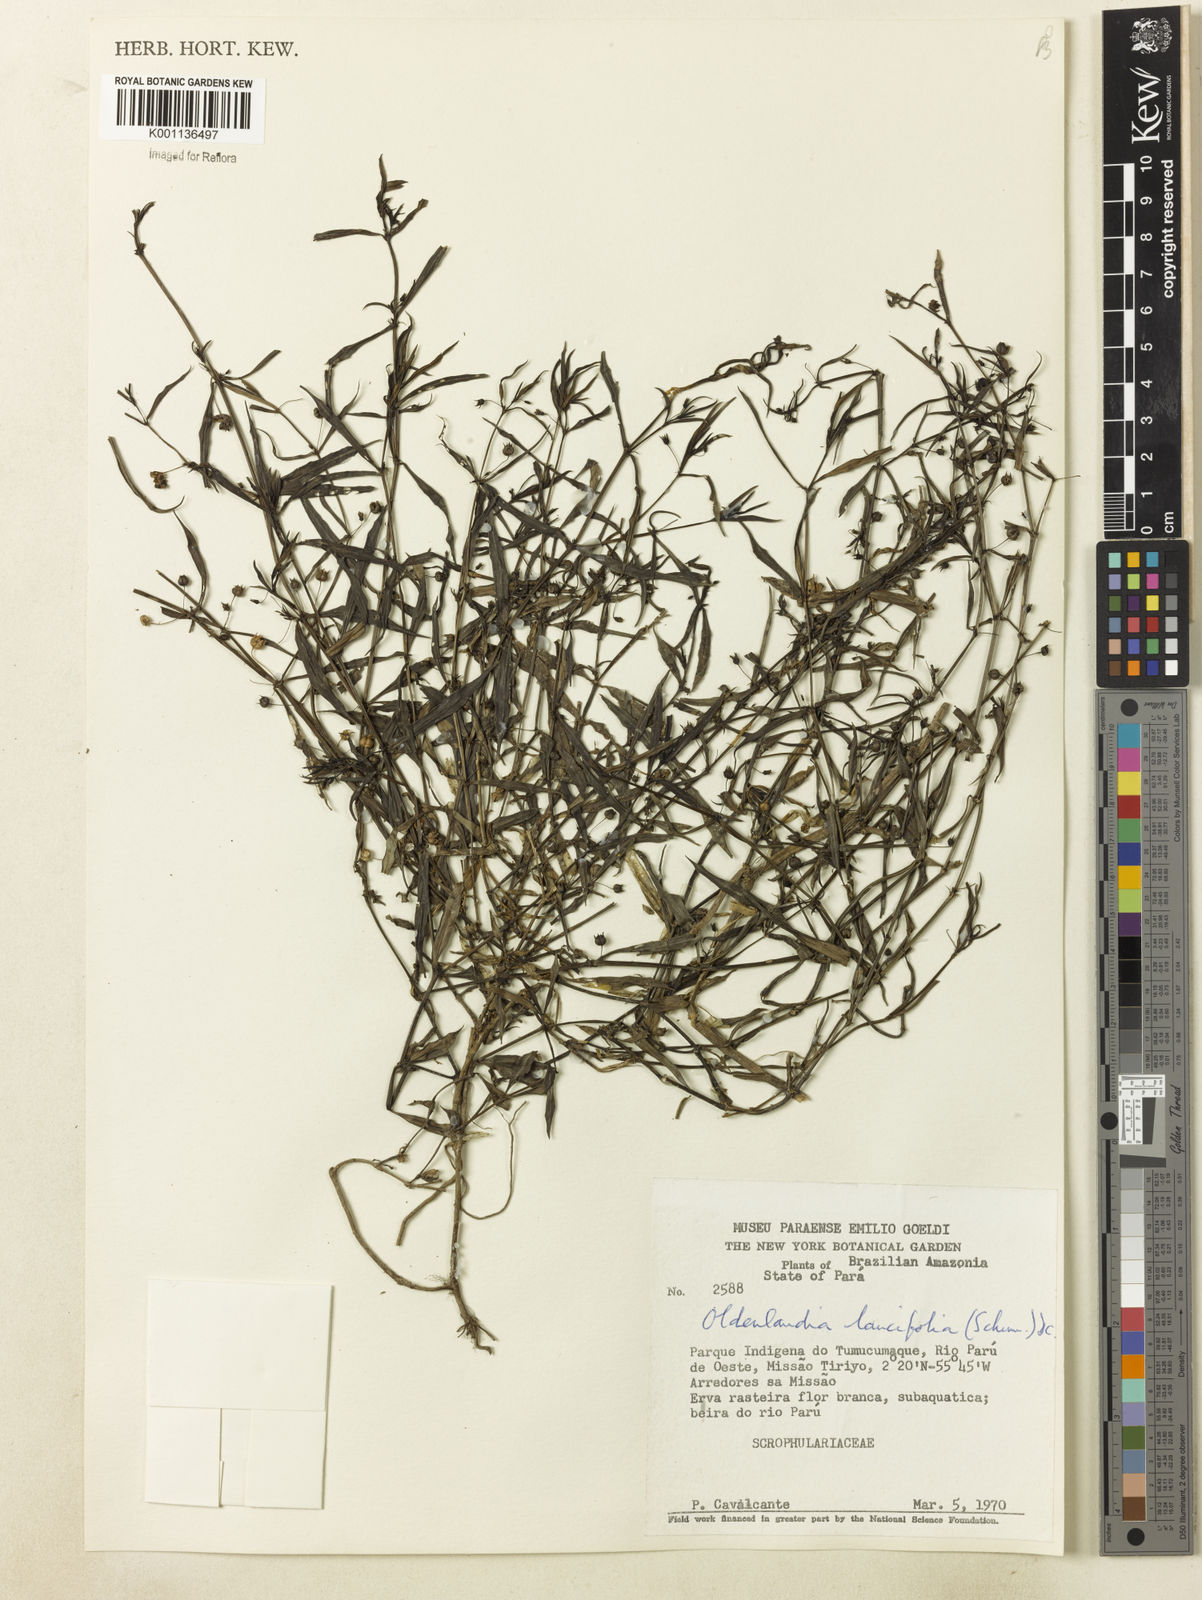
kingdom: Plantae
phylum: Tracheophyta
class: Magnoliopsida
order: Gentianales
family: Rubiaceae
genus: Oldenlandia
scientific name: Oldenlandia lancifolia
